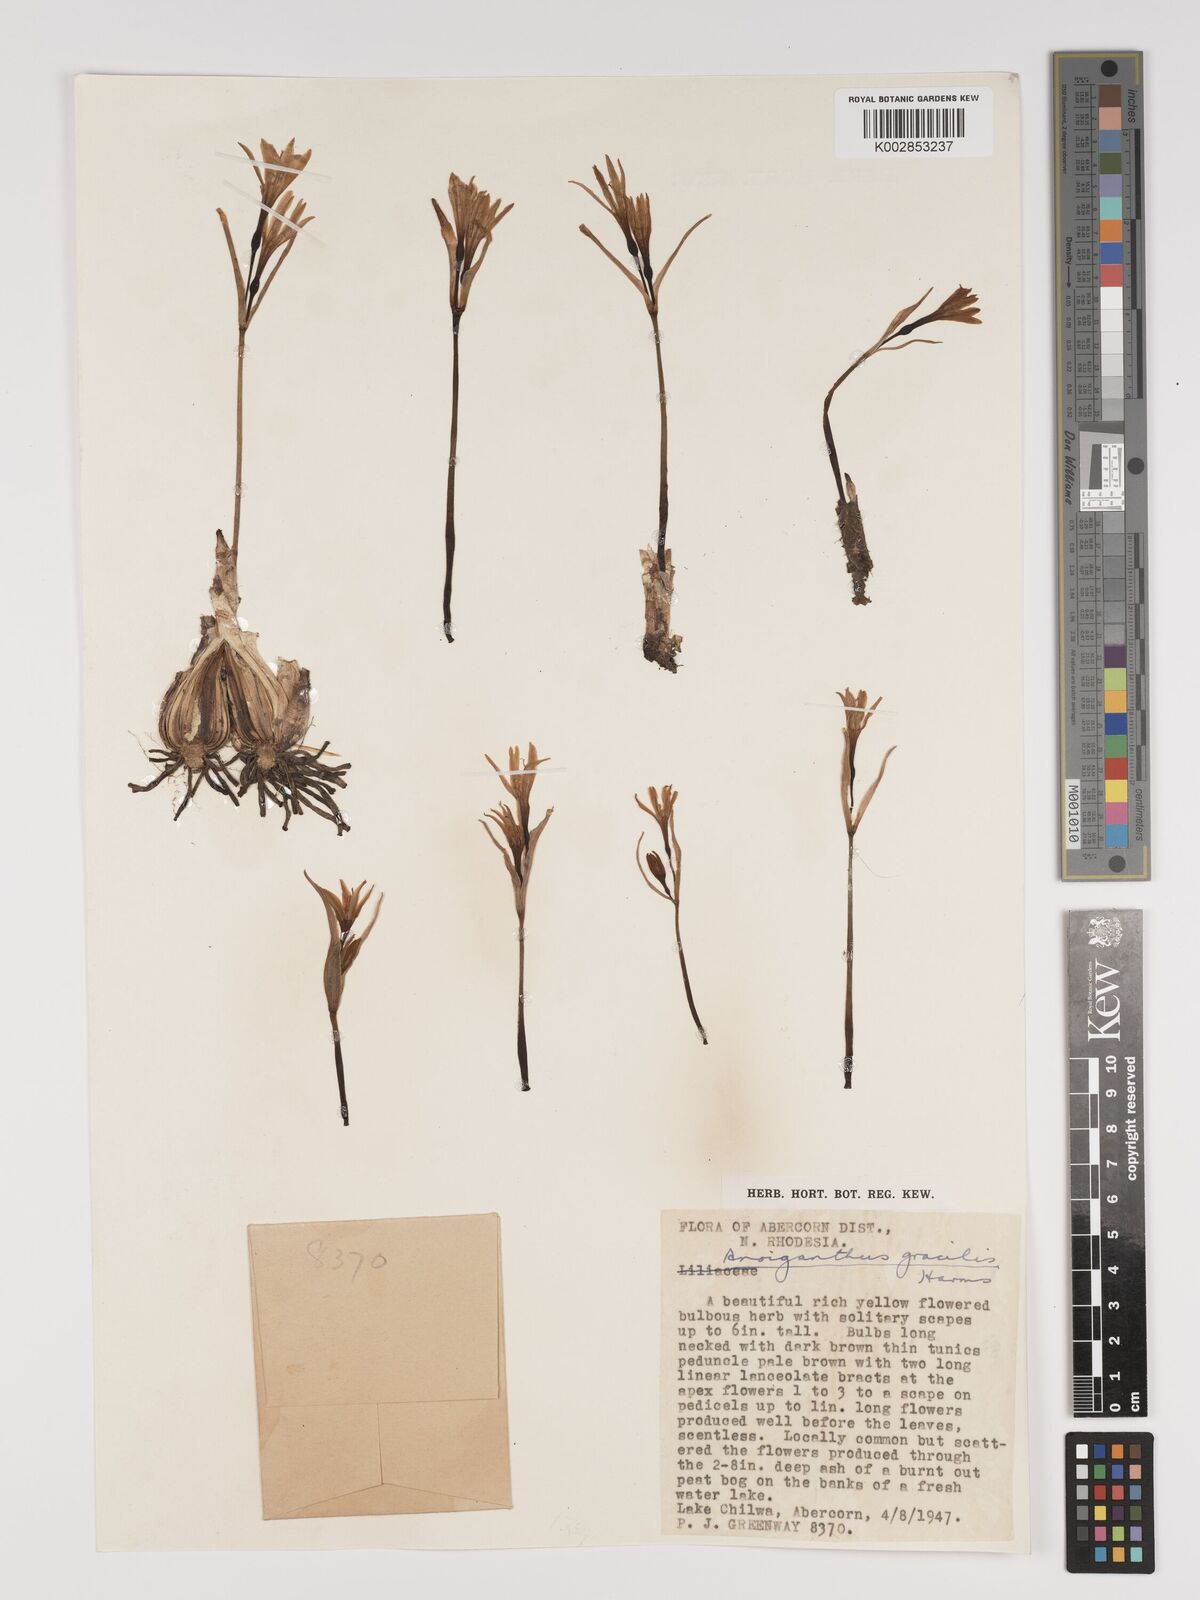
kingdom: Plantae
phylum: Tracheophyta
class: Liliopsida
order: Asparagales
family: Amaryllidaceae
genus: Cyrtanthus
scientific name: Cyrtanthus breviflorus
